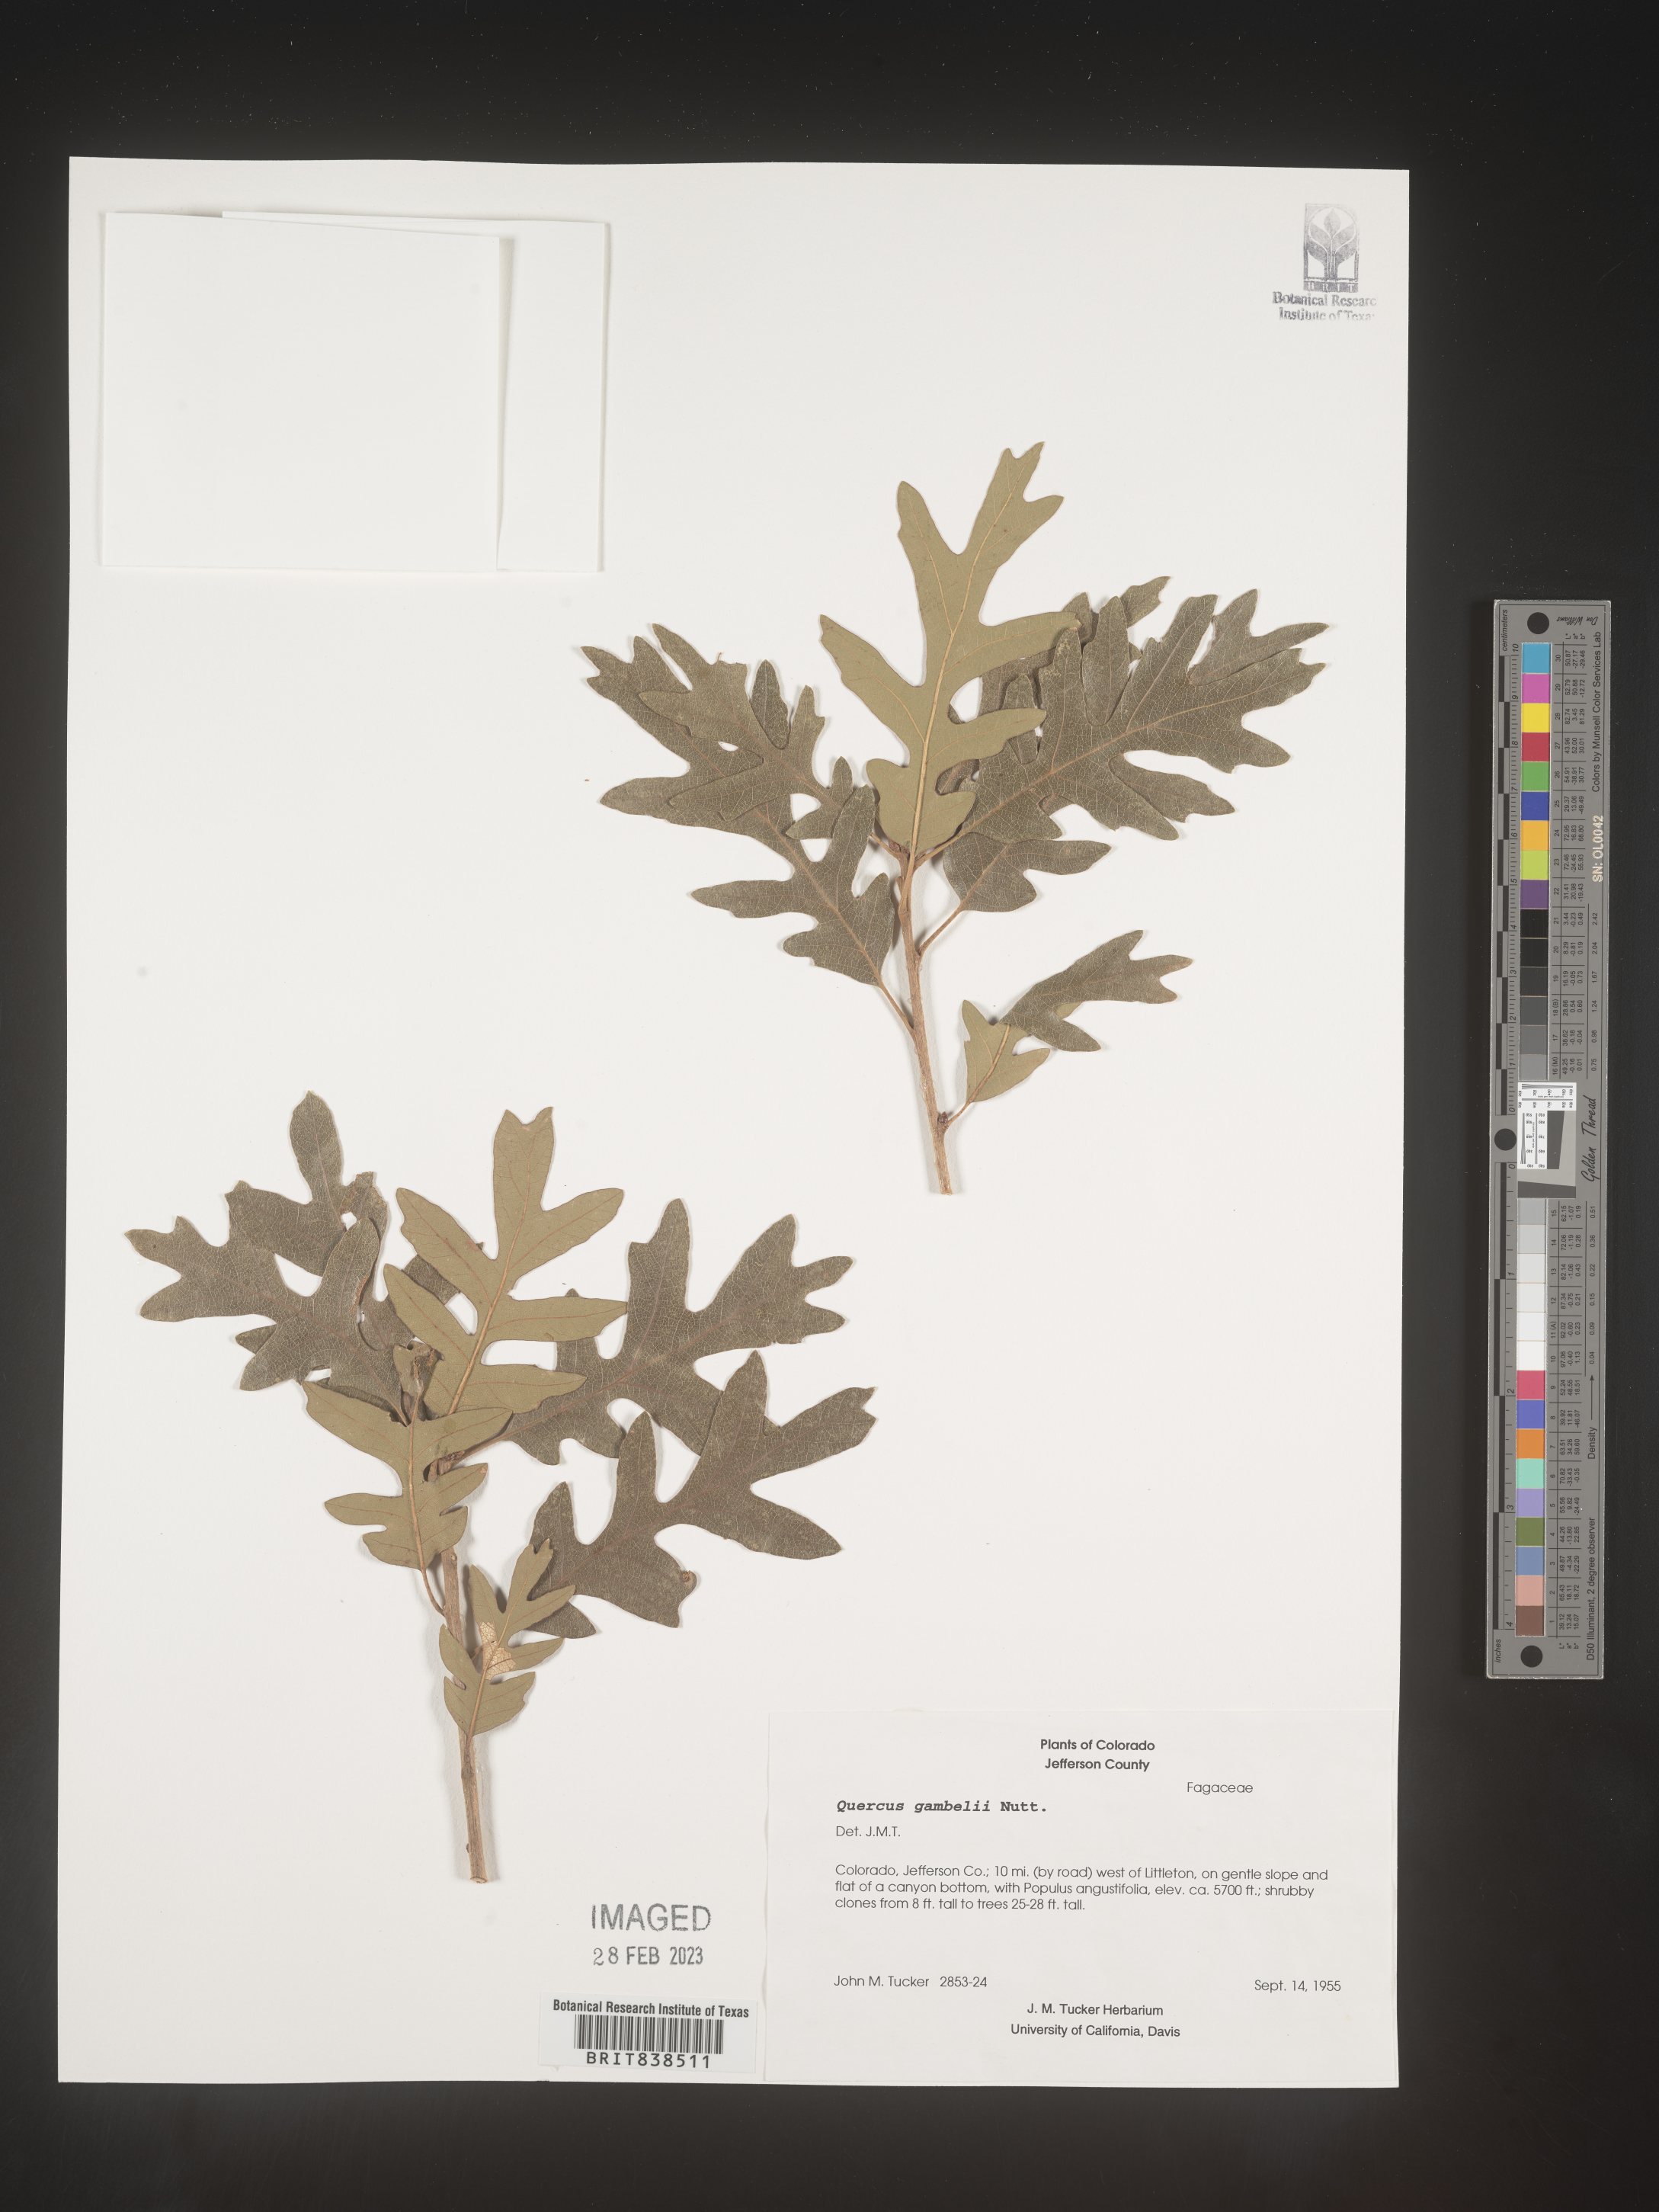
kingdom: Plantae
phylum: Tracheophyta
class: Magnoliopsida
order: Fagales
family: Fagaceae
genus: Quercus
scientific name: Quercus gambelii
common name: Gambel oak
